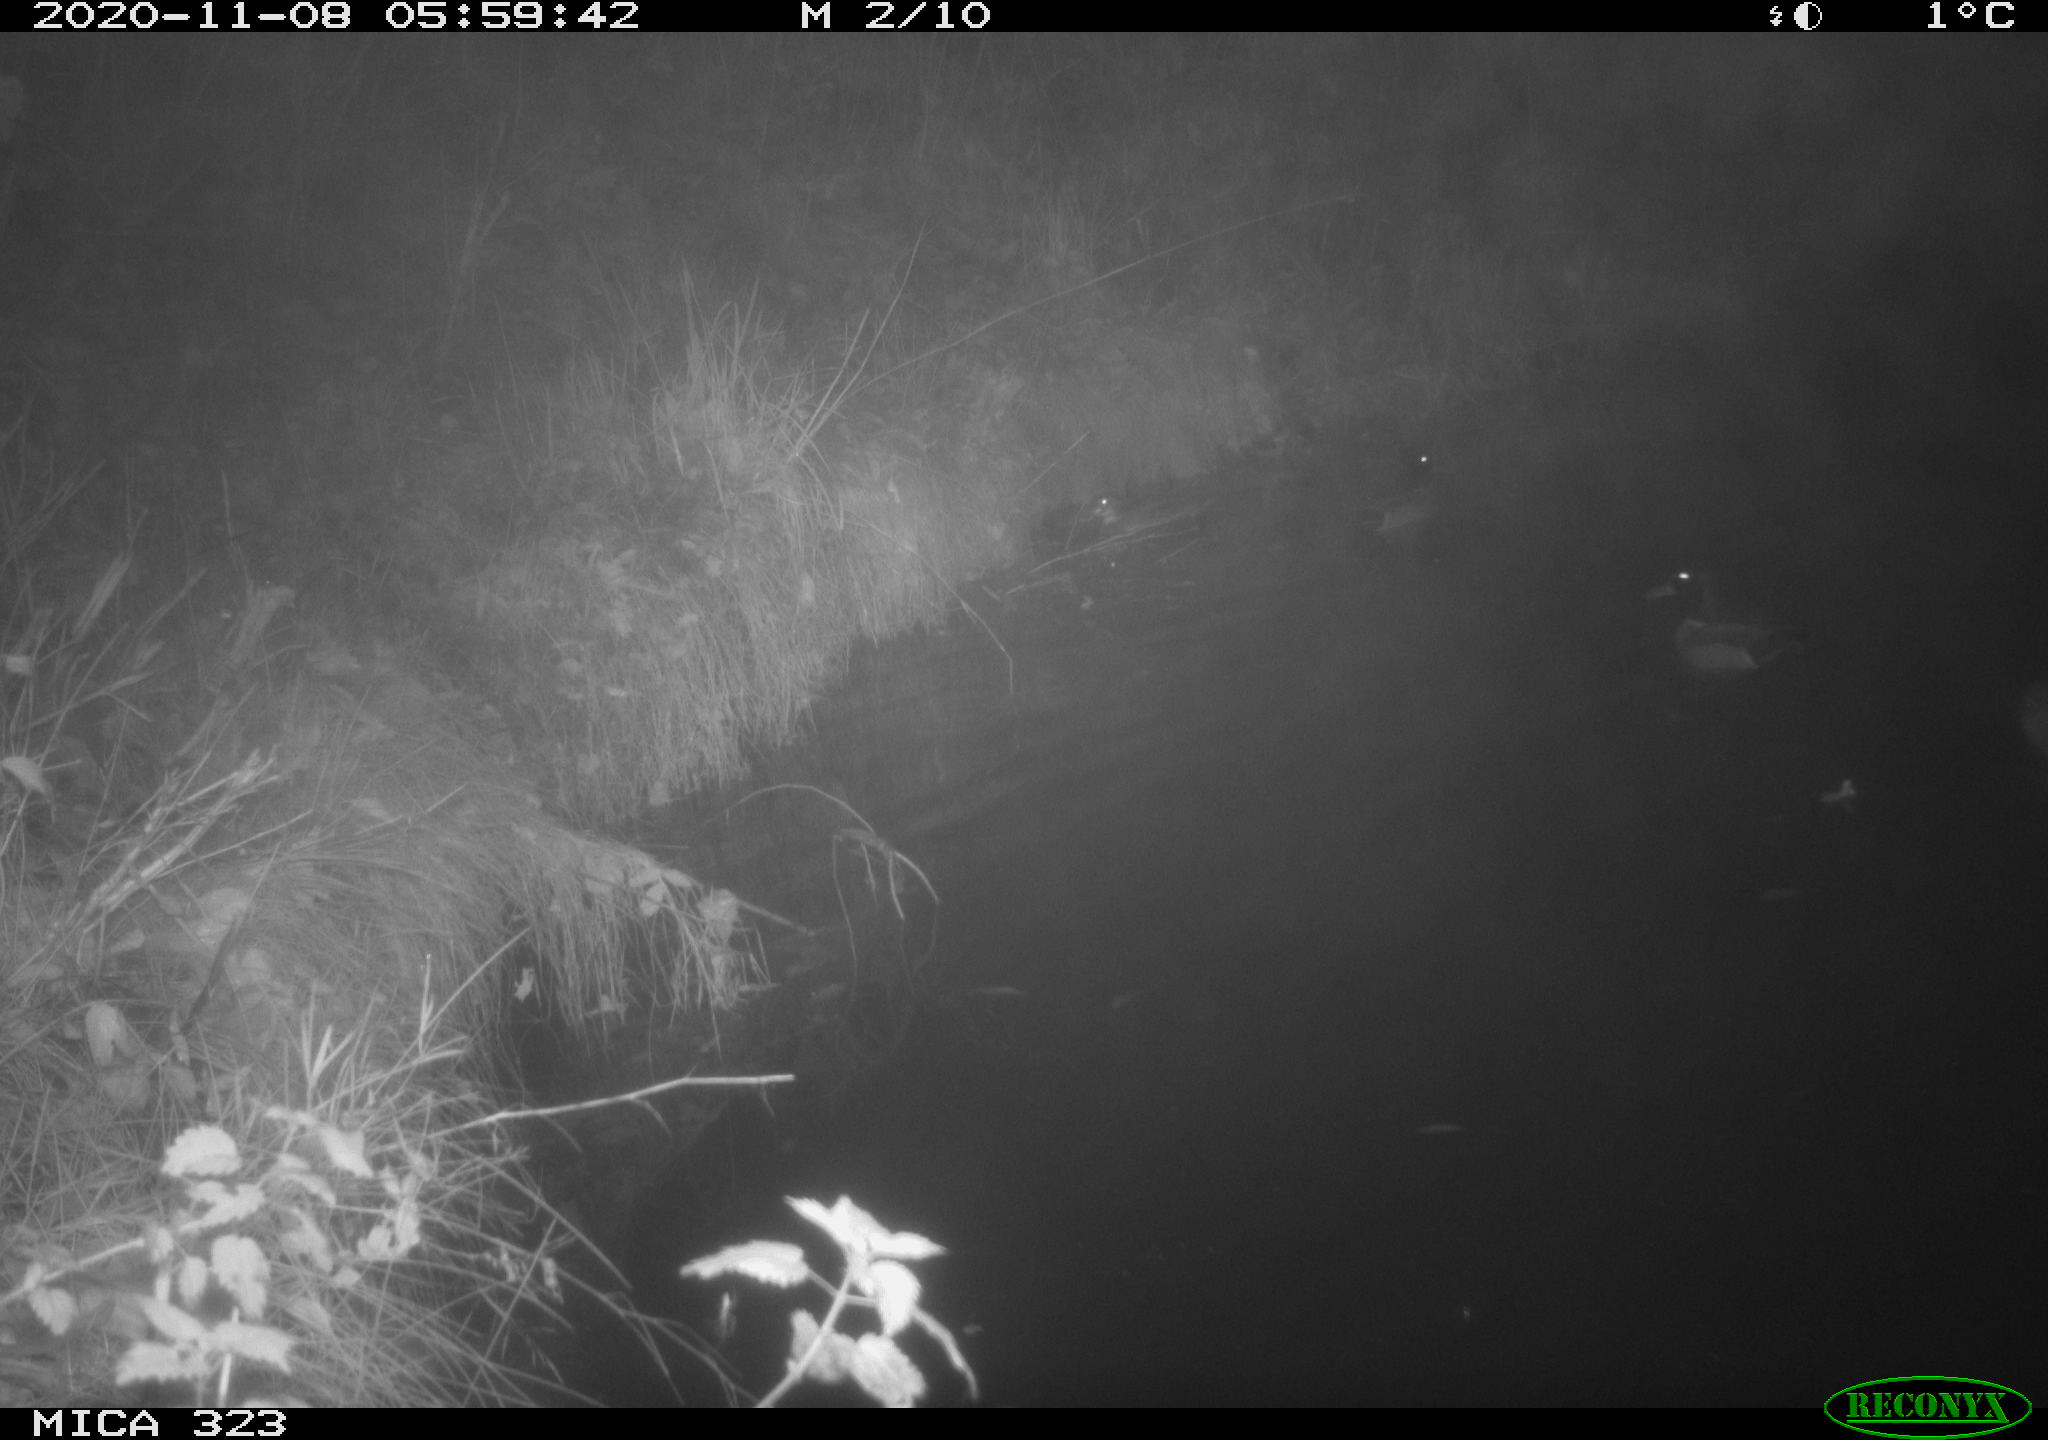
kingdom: Animalia
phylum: Chordata
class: Mammalia
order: Rodentia
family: Myocastoridae
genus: Myocastor
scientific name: Myocastor coypus
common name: Coypu
